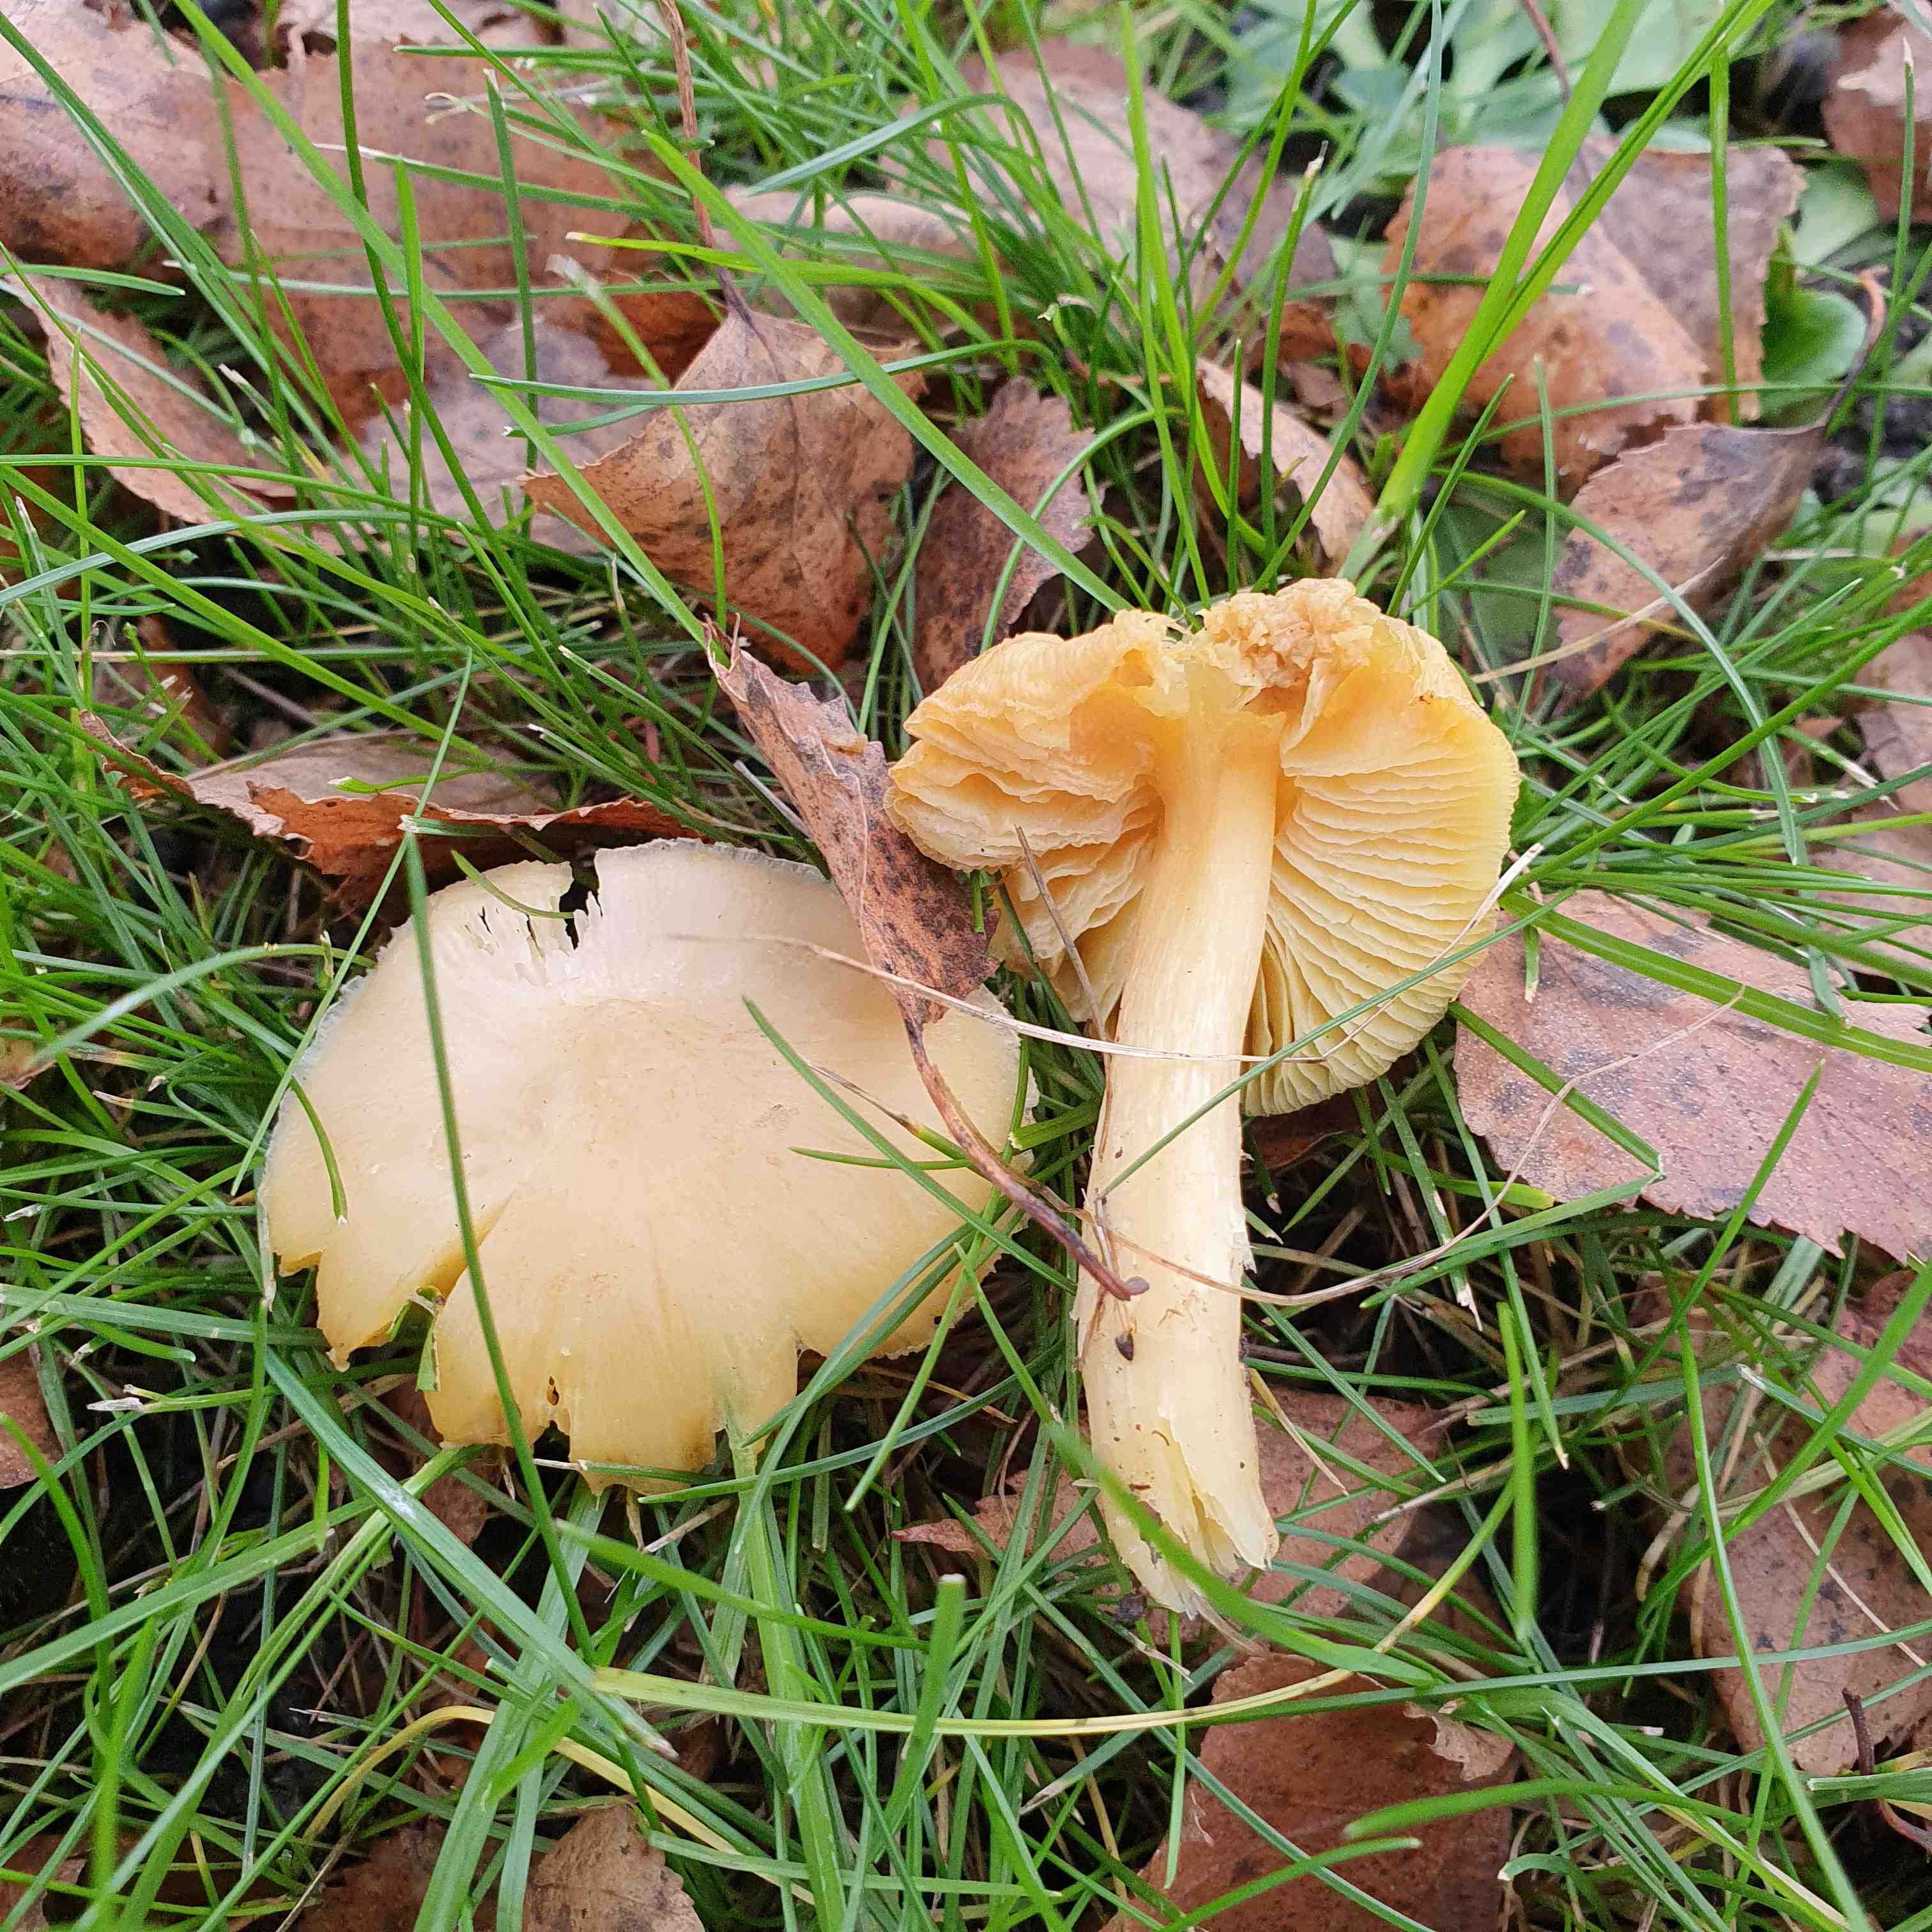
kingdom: Fungi
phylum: Basidiomycota
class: Agaricomycetes
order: Agaricales
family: Hygrophoraceae
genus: Hygrocybe
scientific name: Hygrocybe
